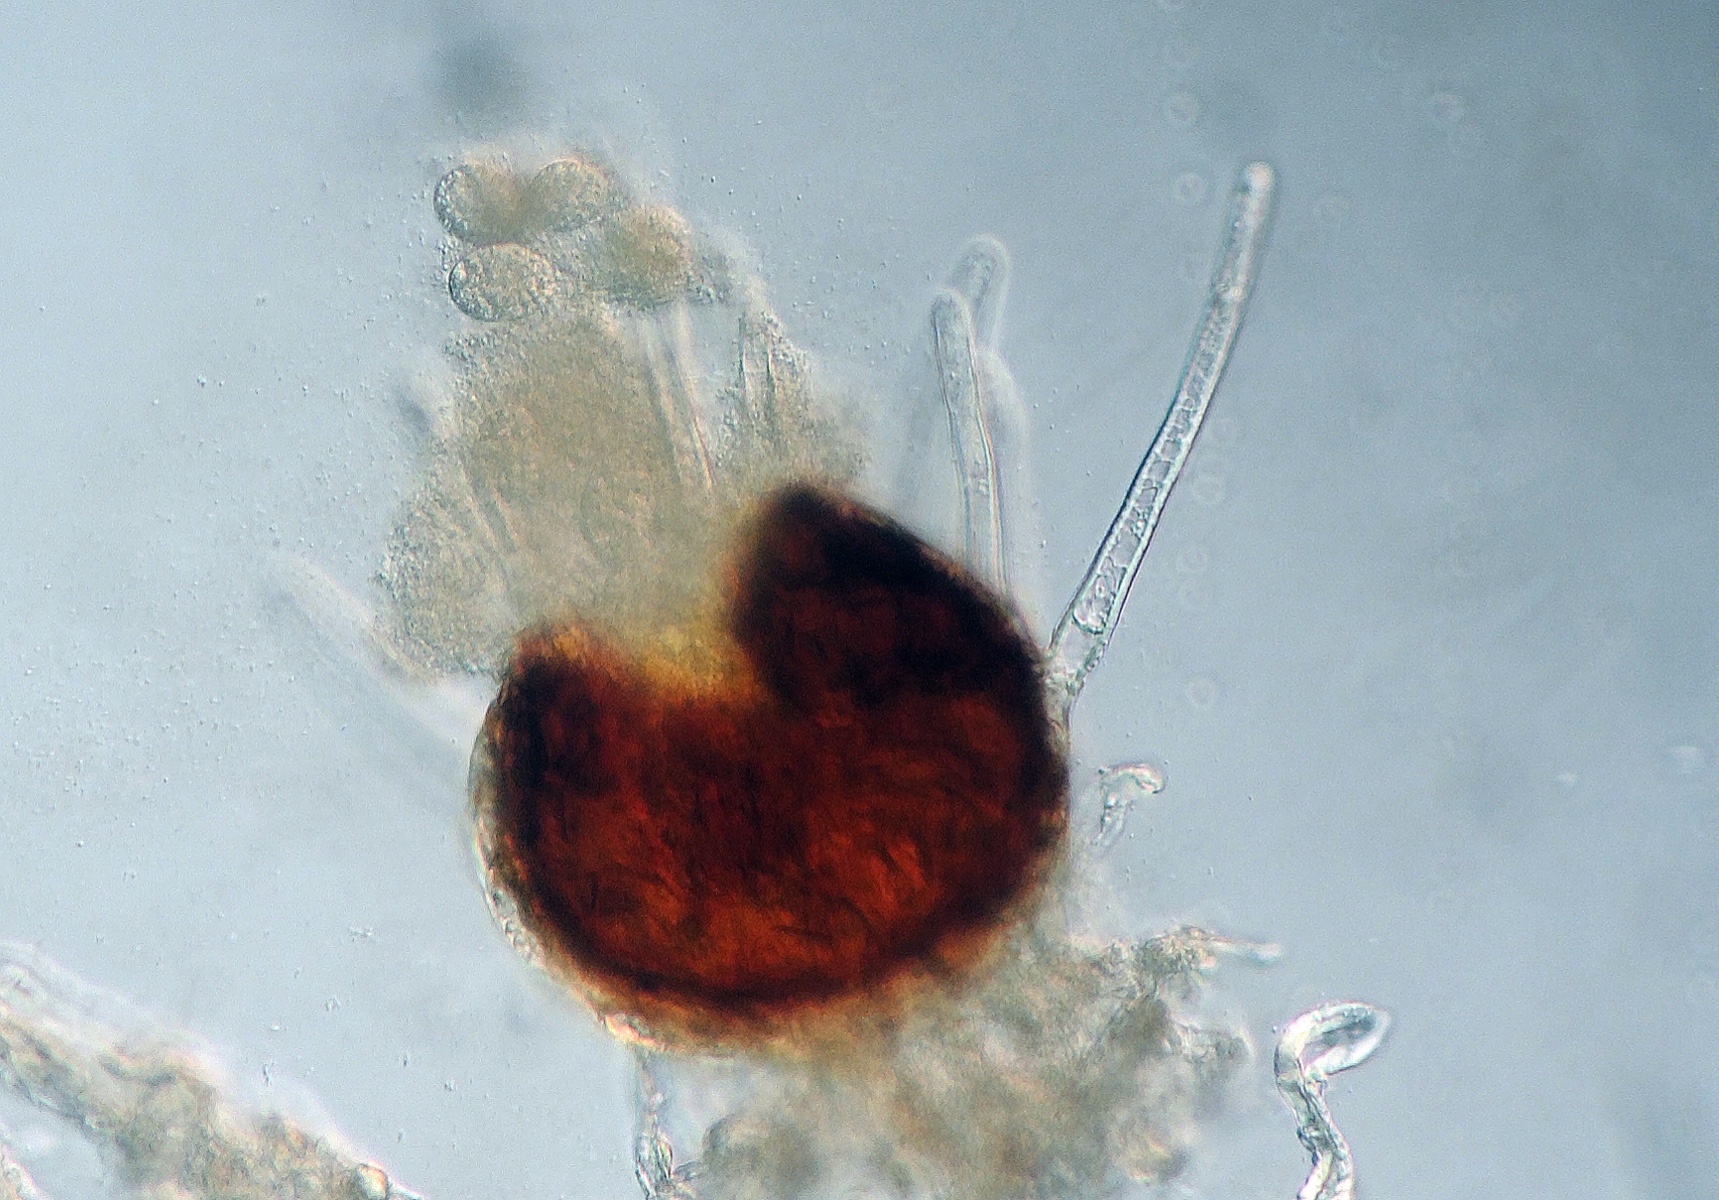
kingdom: Fungi
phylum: Ascomycota
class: Leotiomycetes
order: Helotiales
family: Erysiphaceae
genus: Microsphaera
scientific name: Microsphaera grossulariae
